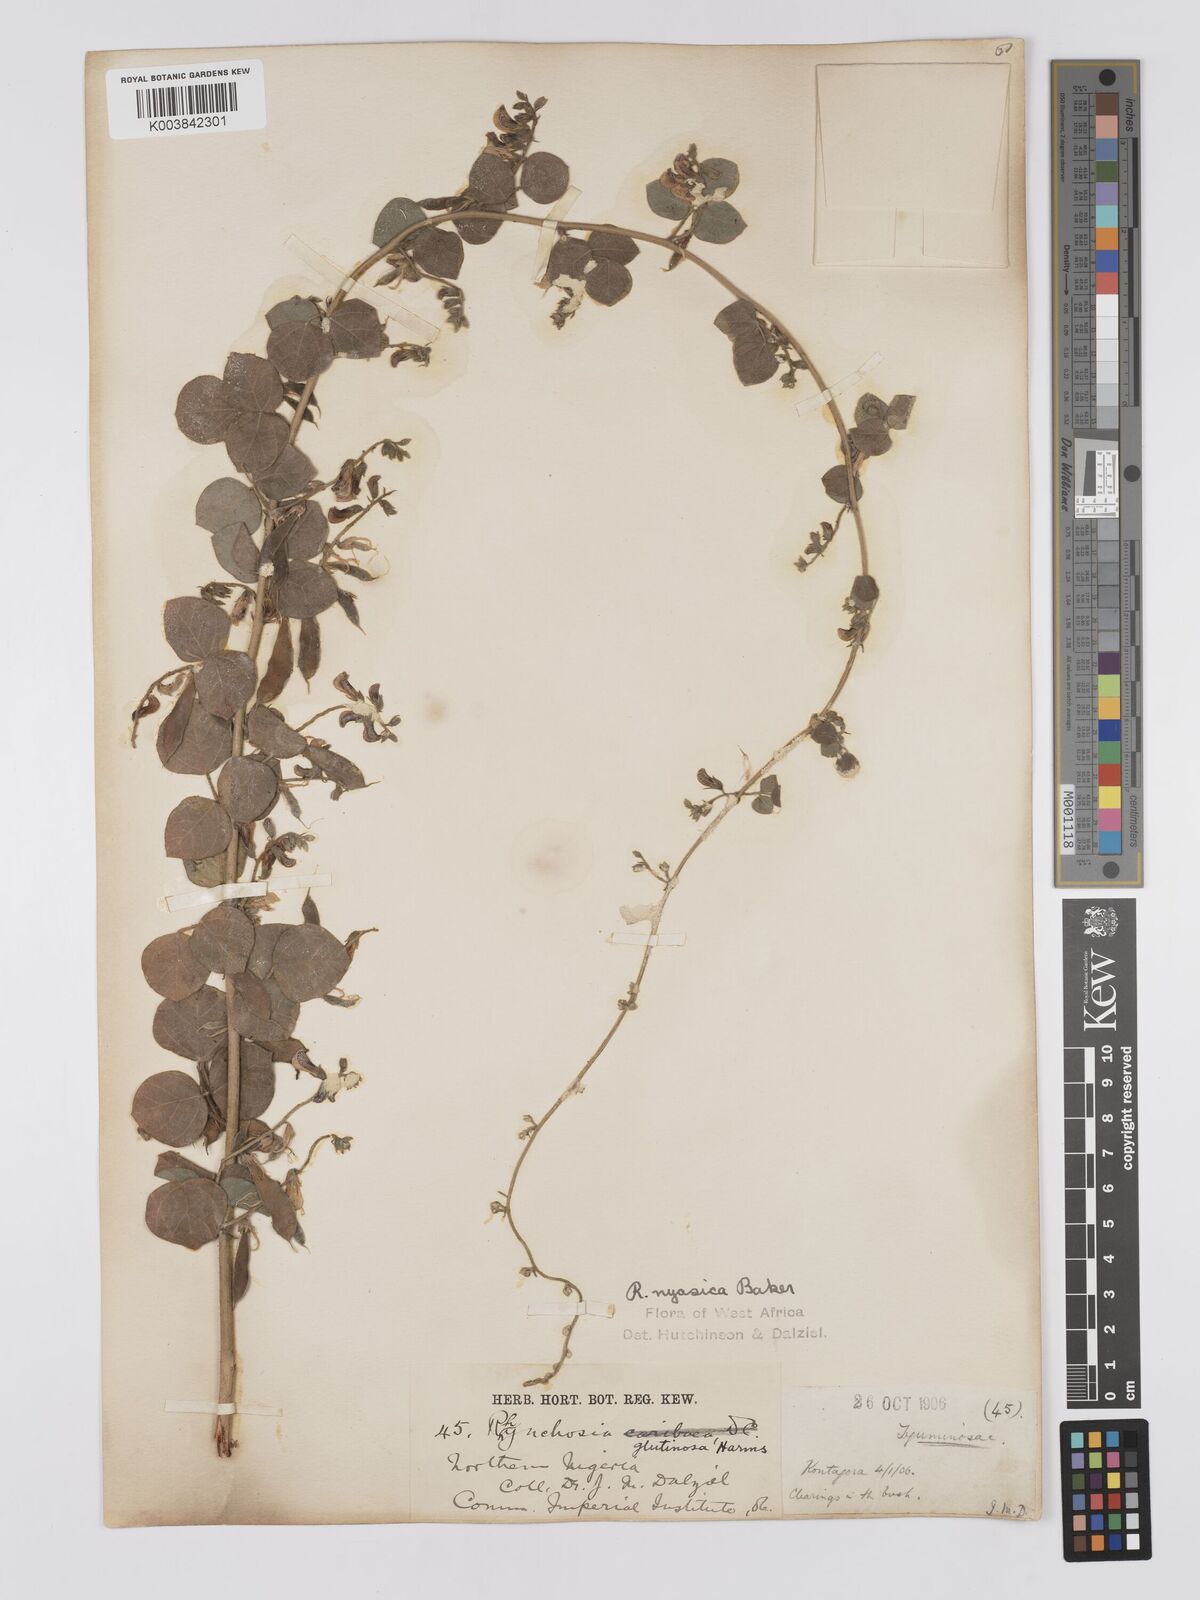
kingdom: Plantae
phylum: Tracheophyta
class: Magnoliopsida
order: Fabales
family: Fabaceae
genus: Rhynchosia
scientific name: Rhynchosia nyasica
